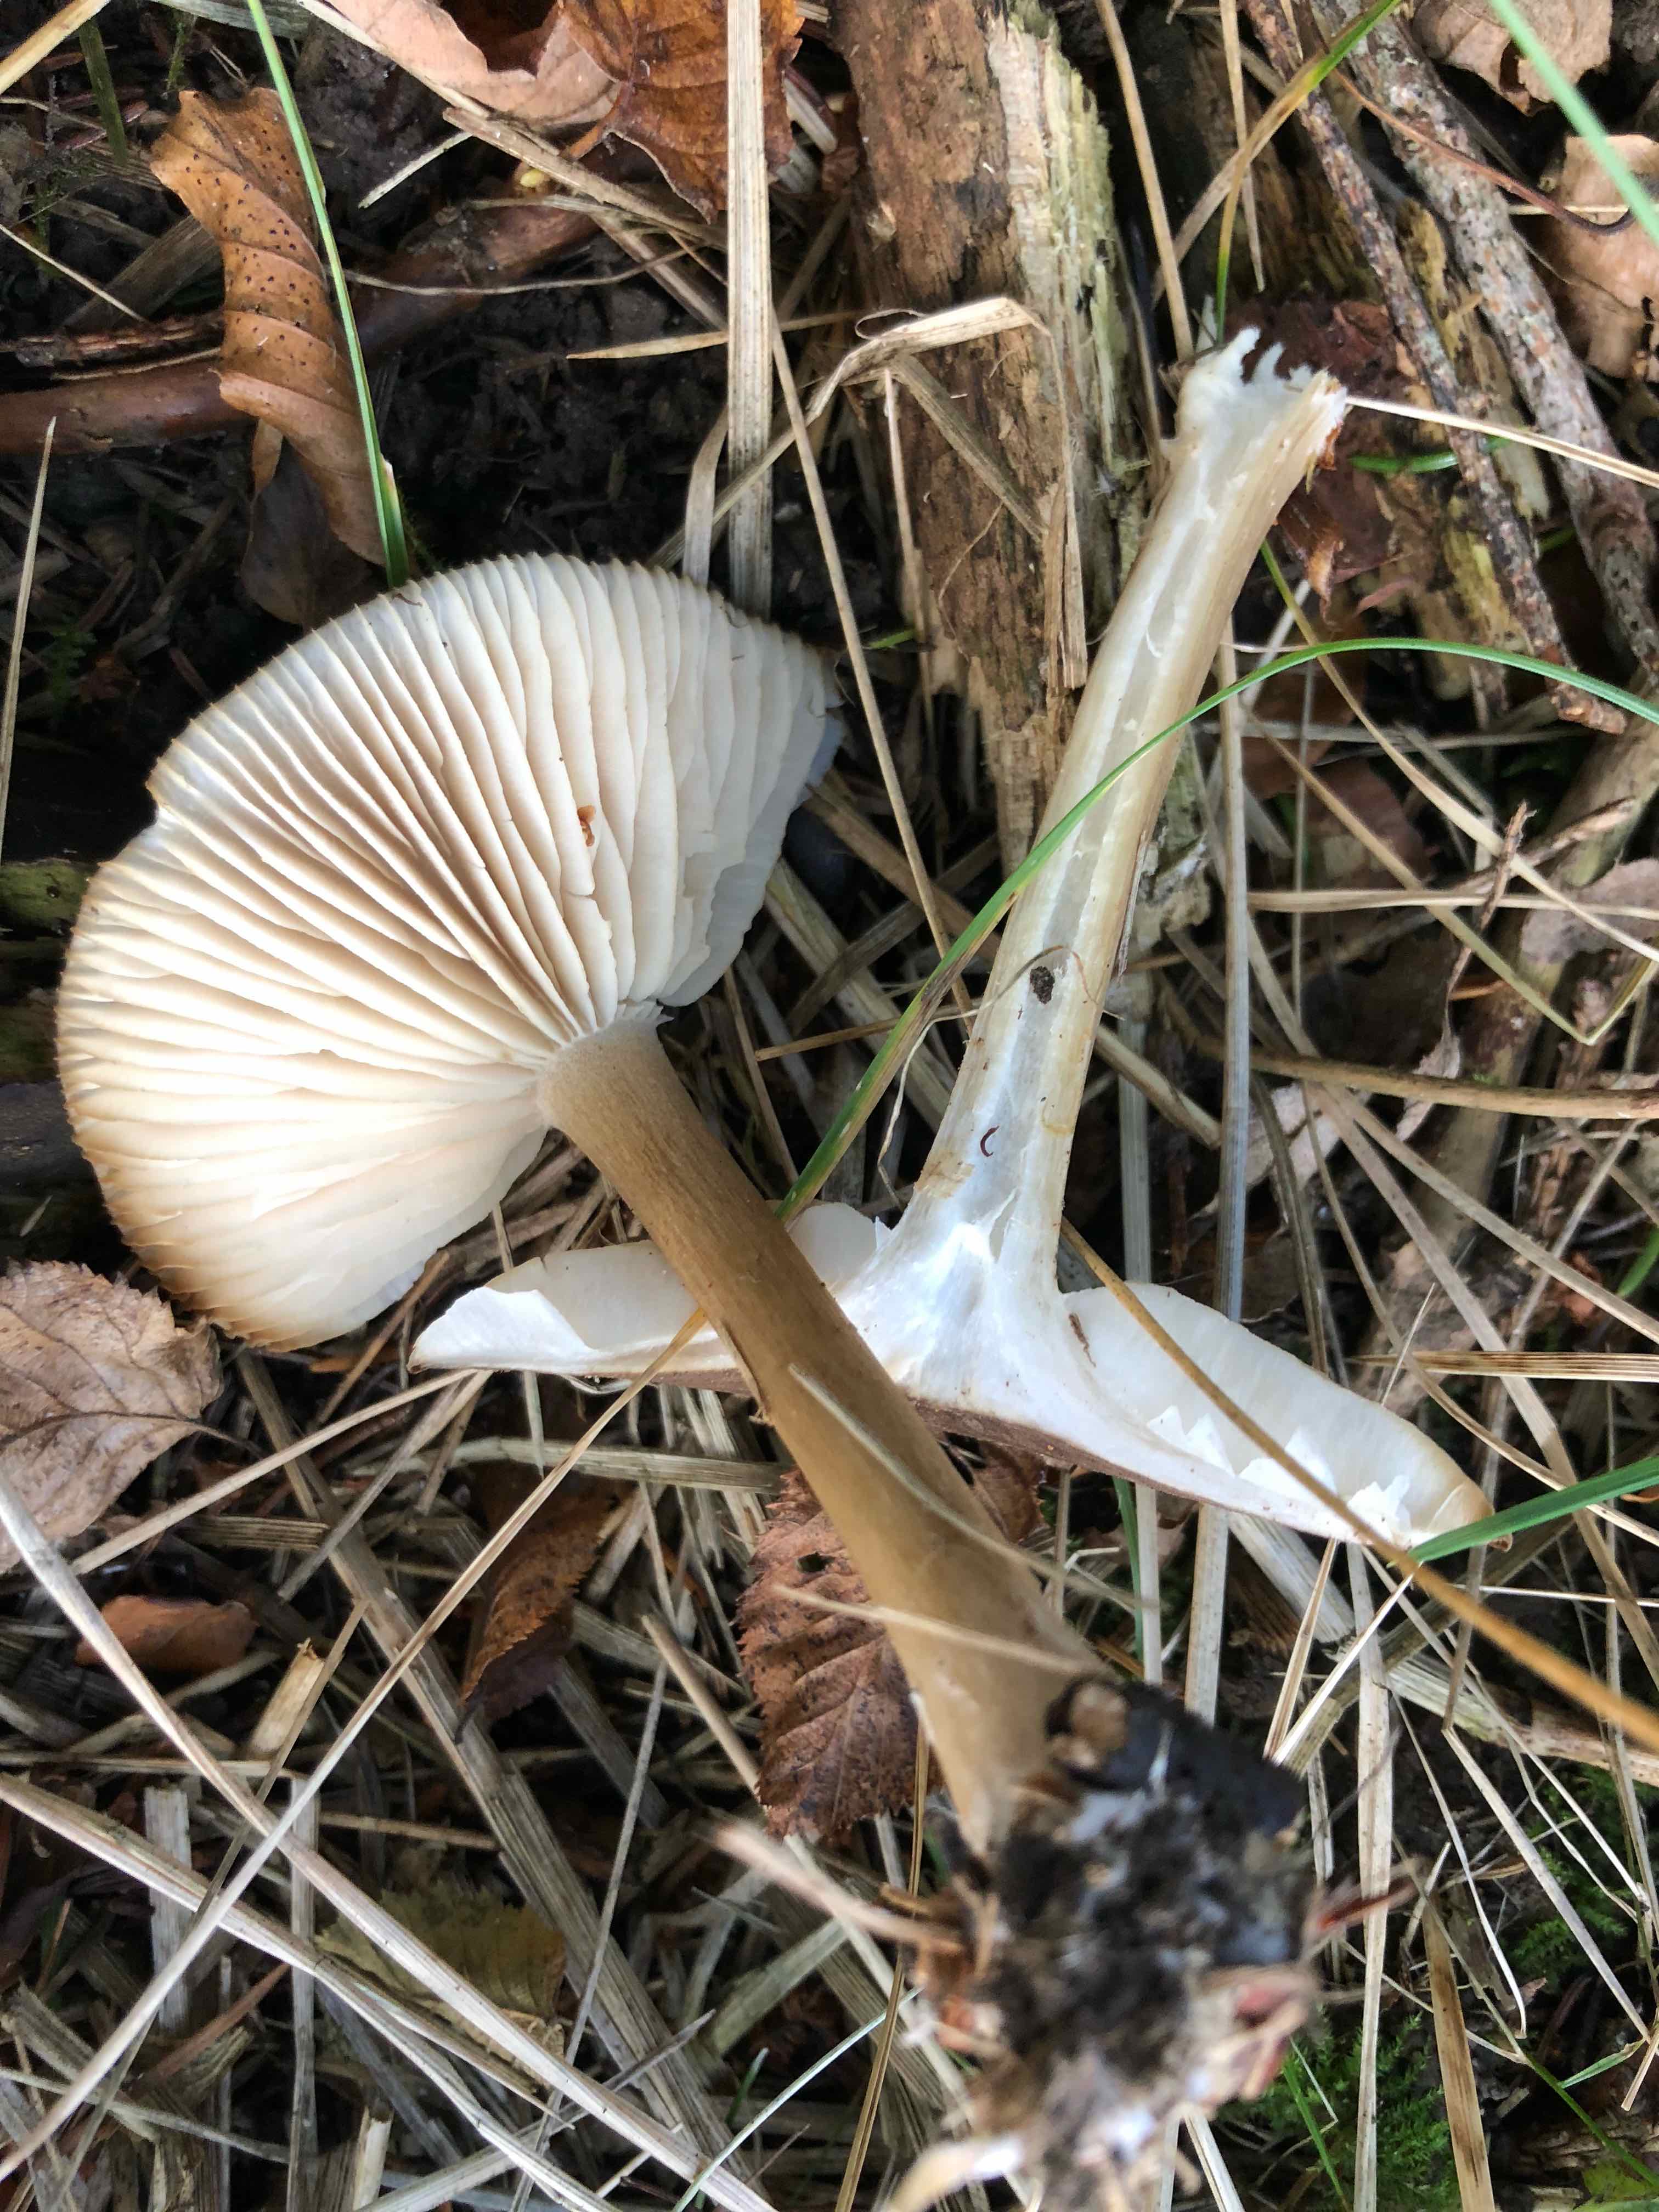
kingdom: Fungi
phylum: Basidiomycota
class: Agaricomycetes
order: Agaricales
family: Tricholomataceae
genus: Megacollybia
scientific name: Megacollybia platyphylla
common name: bredbladet væbnerhat
